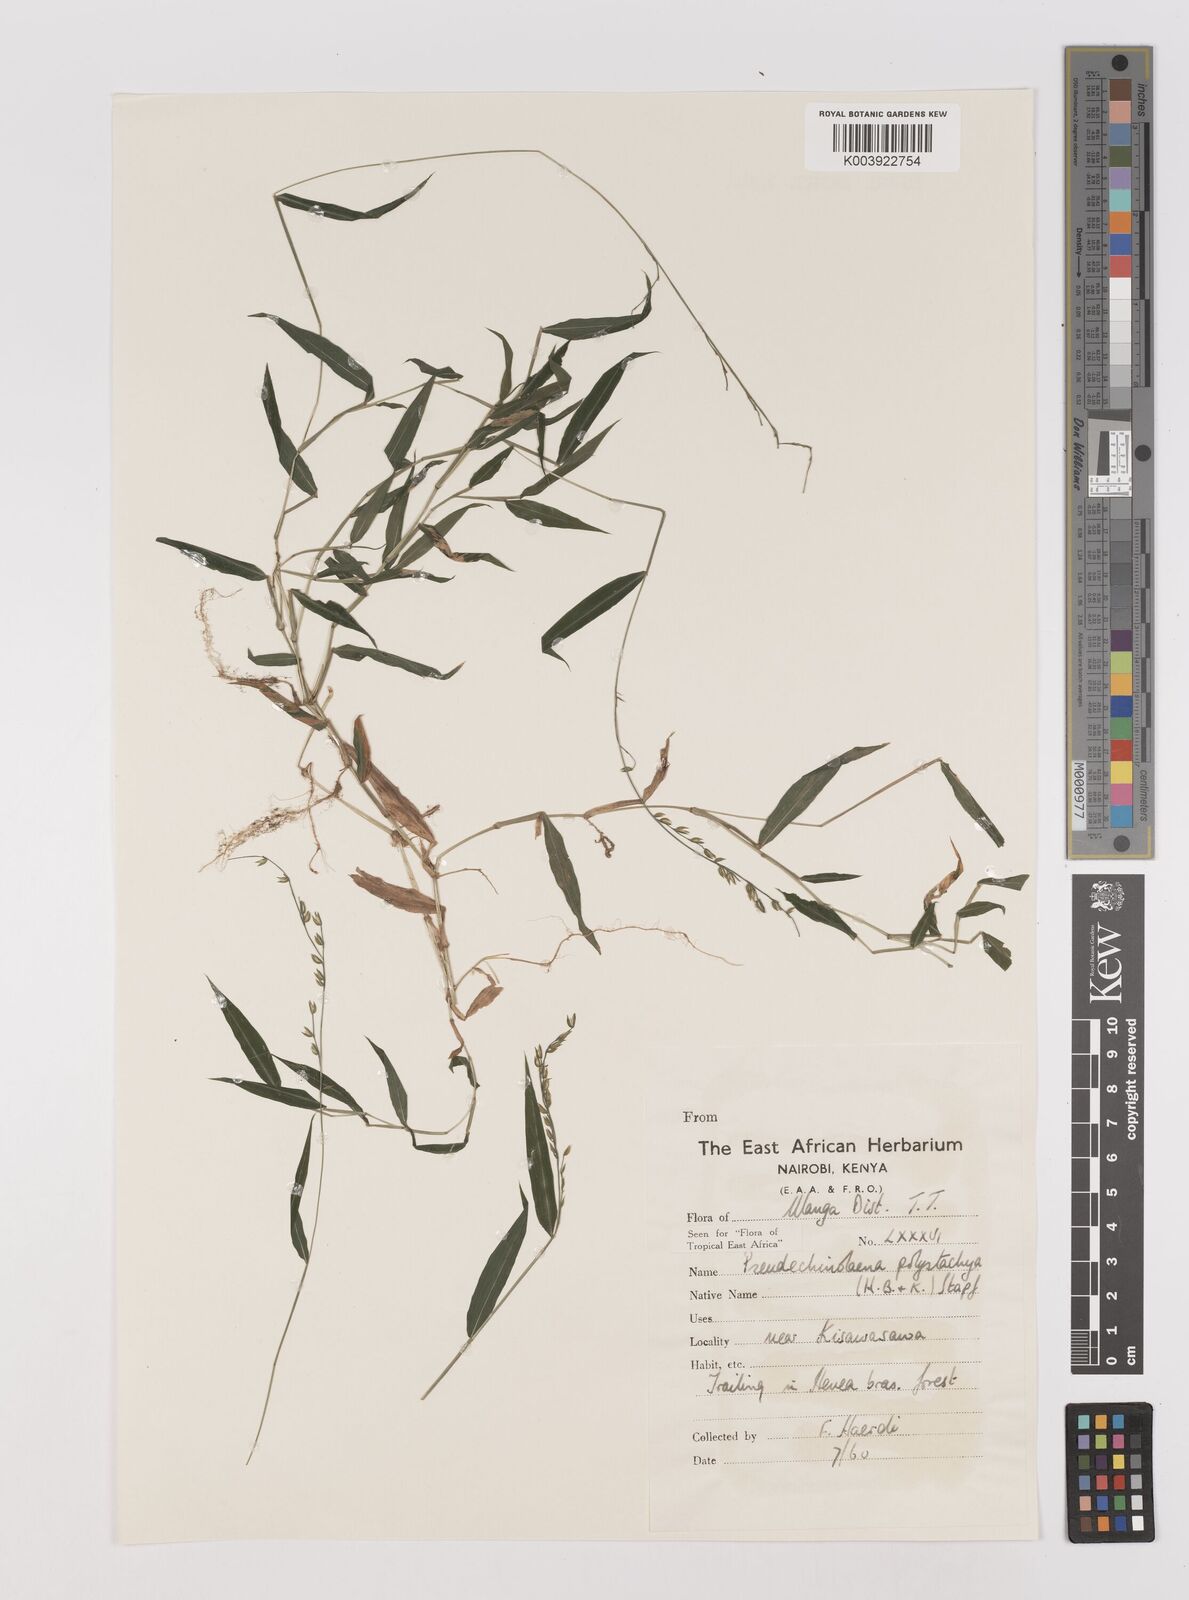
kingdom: Plantae
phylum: Tracheophyta
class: Liliopsida
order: Poales
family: Poaceae
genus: Pseudechinolaena
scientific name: Pseudechinolaena polystachya
